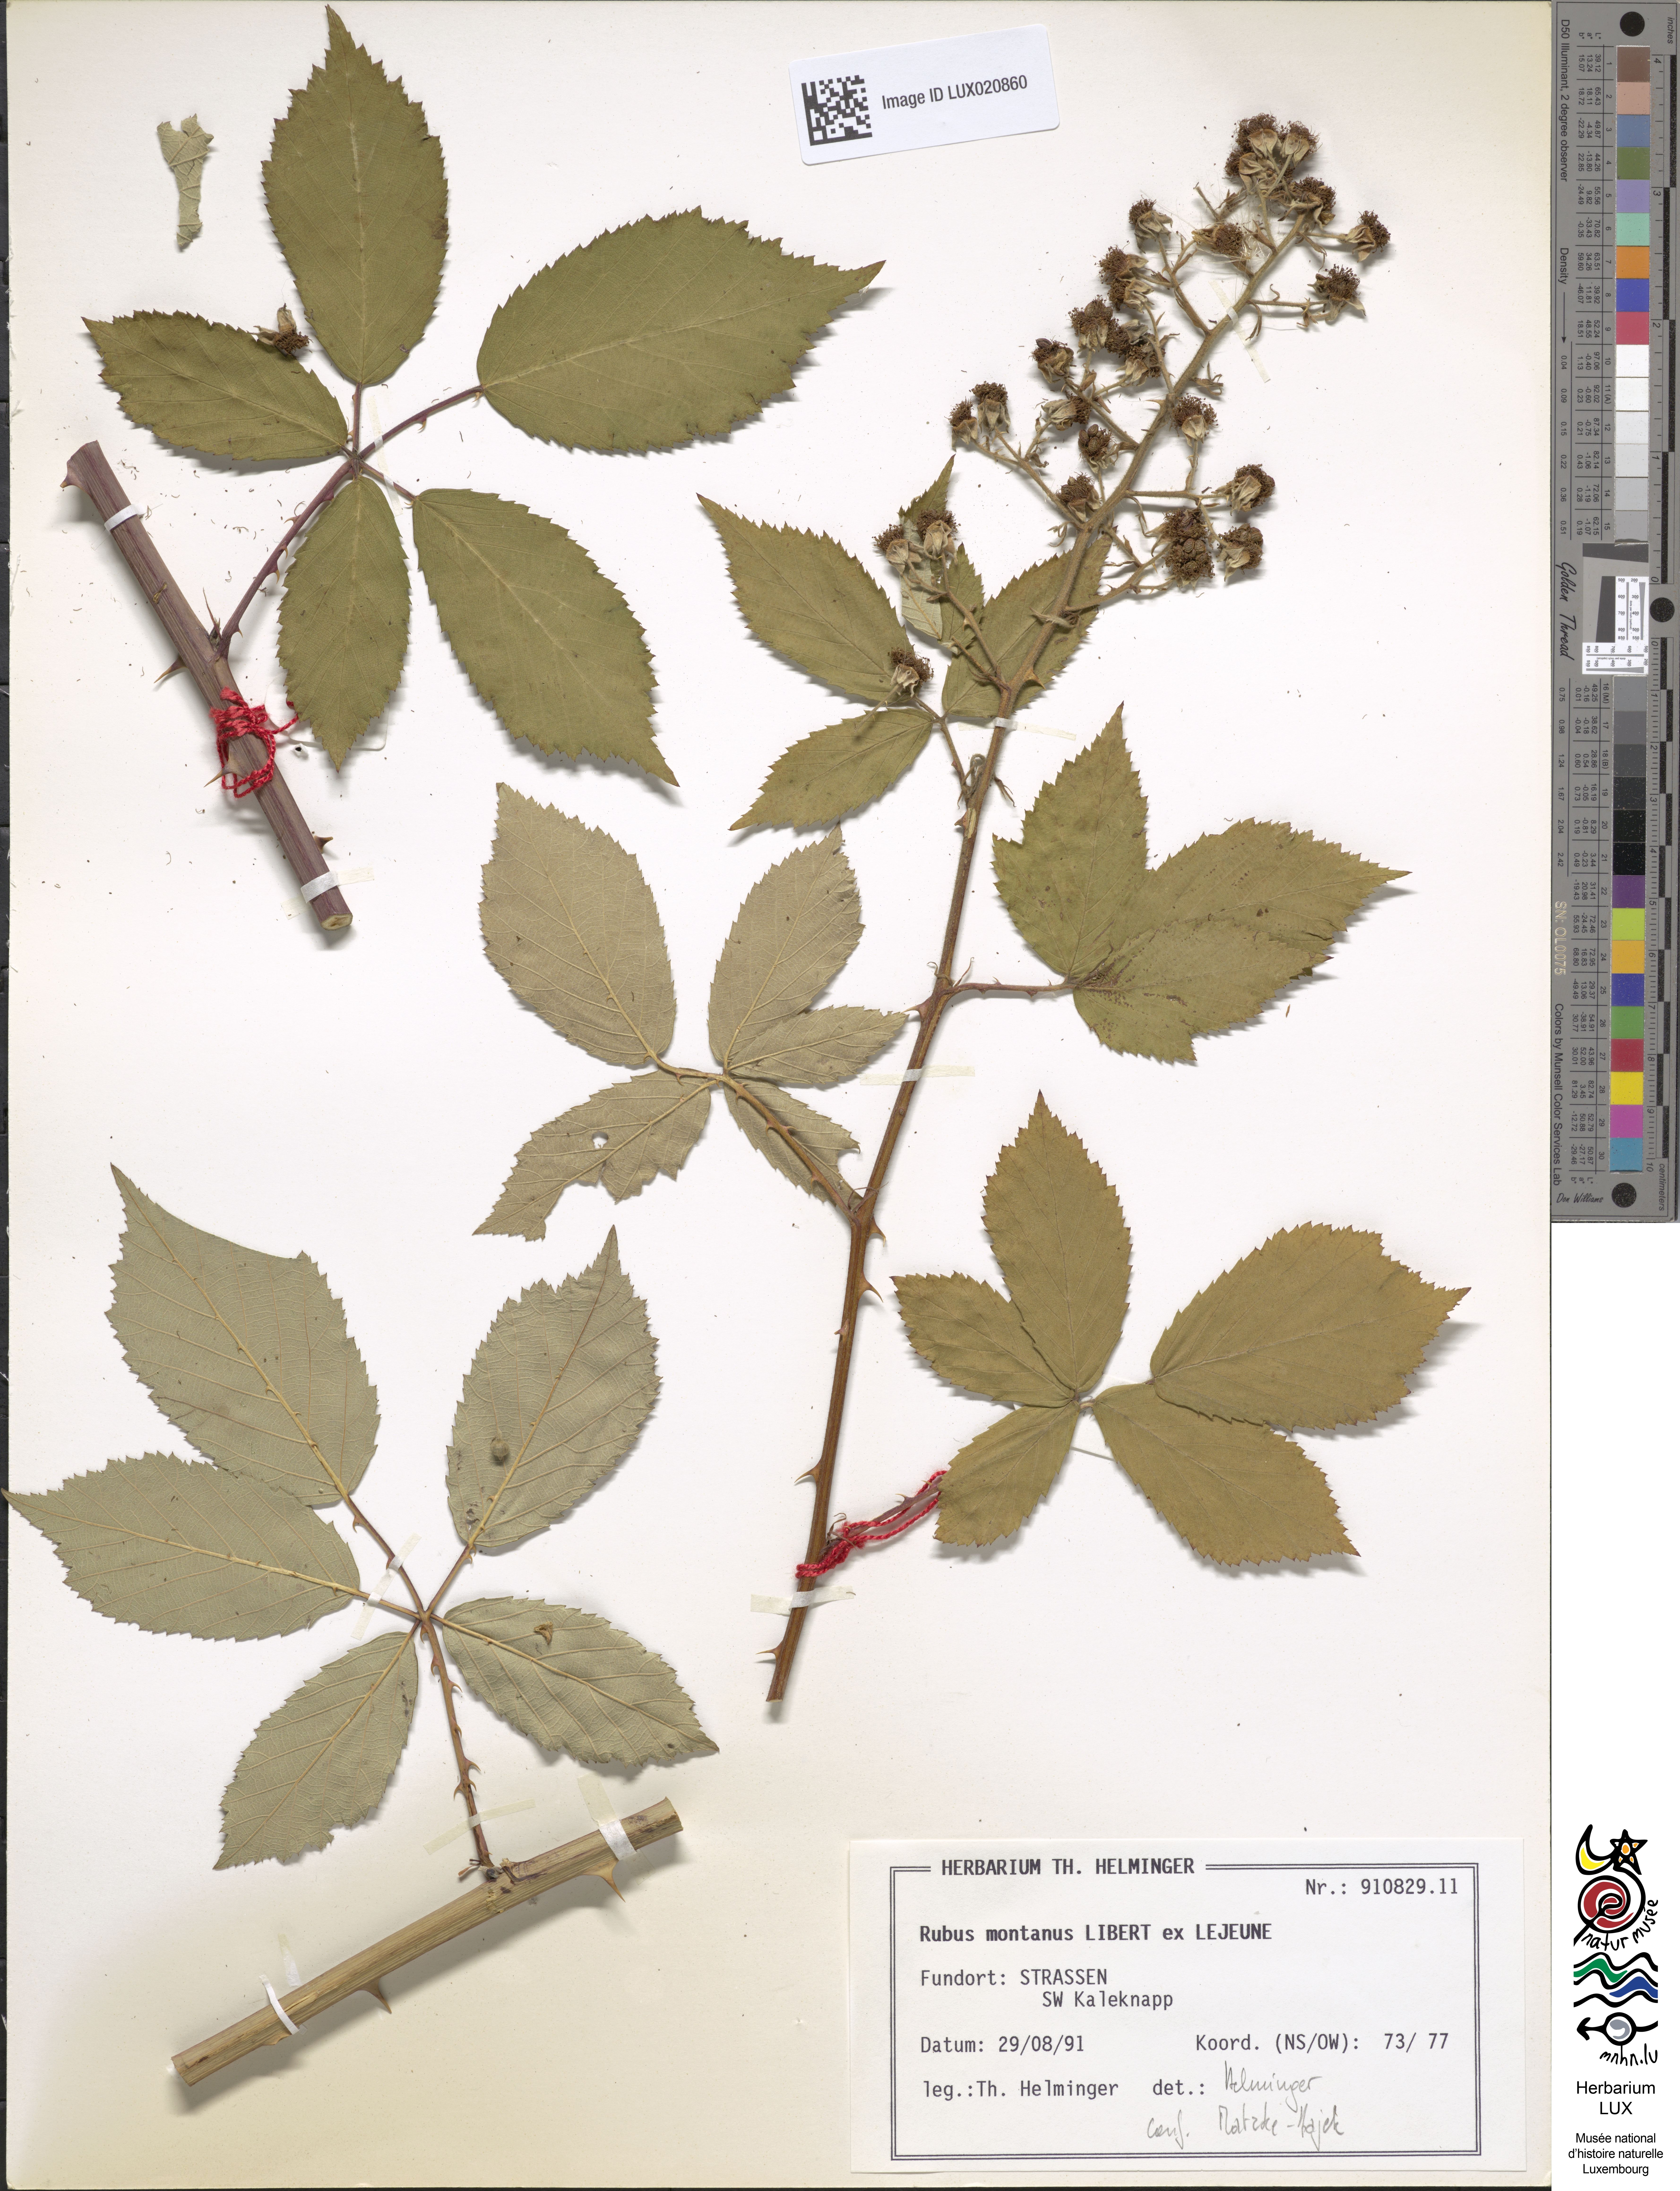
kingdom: Plantae
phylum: Tracheophyta
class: Magnoliopsida
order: Rosales
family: Rosaceae
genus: Rubus
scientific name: Rubus montanus
